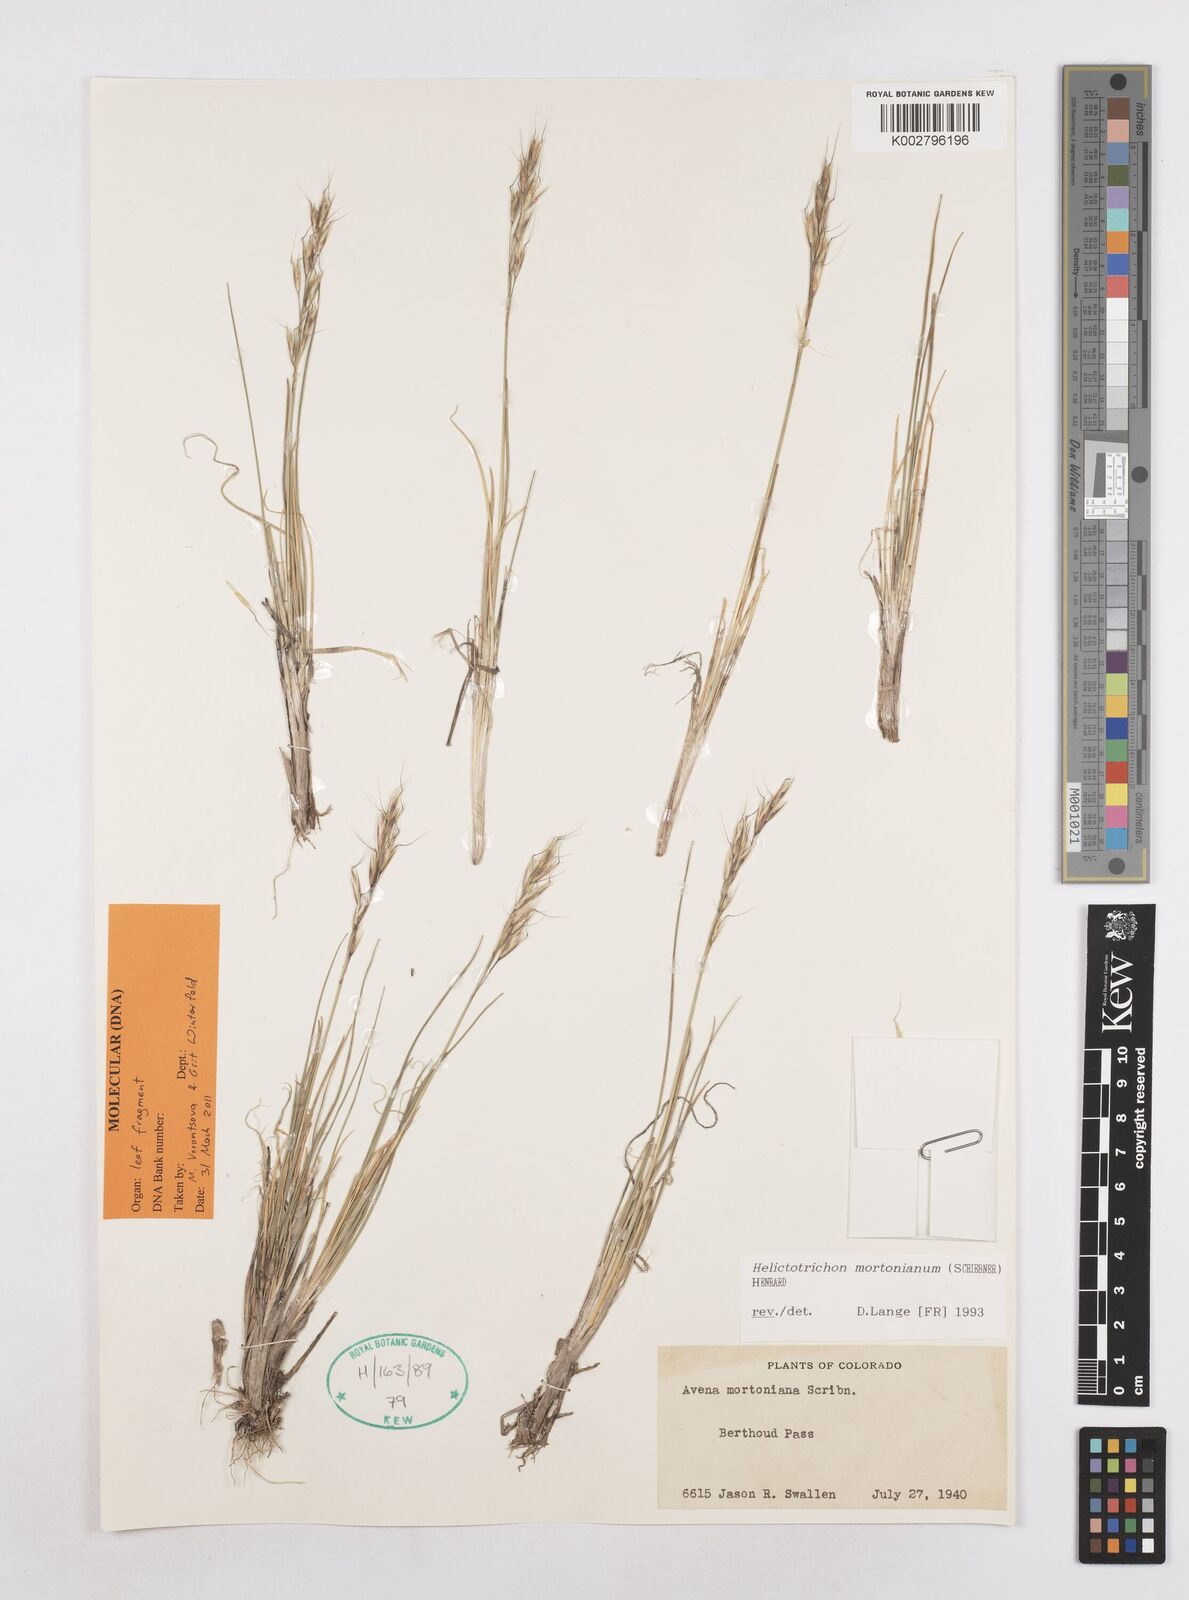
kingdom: Plantae
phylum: Tracheophyta
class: Liliopsida
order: Poales
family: Poaceae
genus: Helictotrichon
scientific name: Helictotrichon mortonianum
